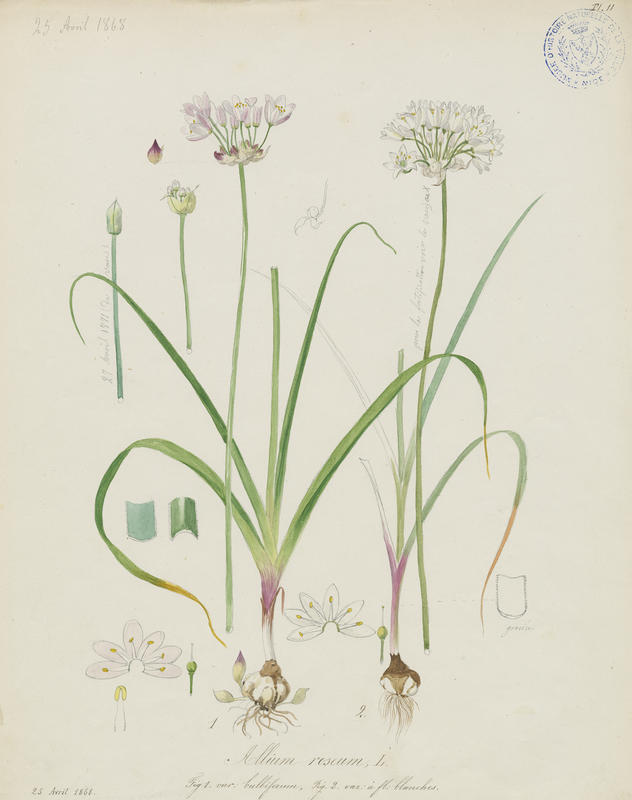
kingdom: Plantae
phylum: Tracheophyta
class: Liliopsida
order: Asparagales
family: Amaryllidaceae
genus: Allium
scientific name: Allium roseum
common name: Rosy garlic
